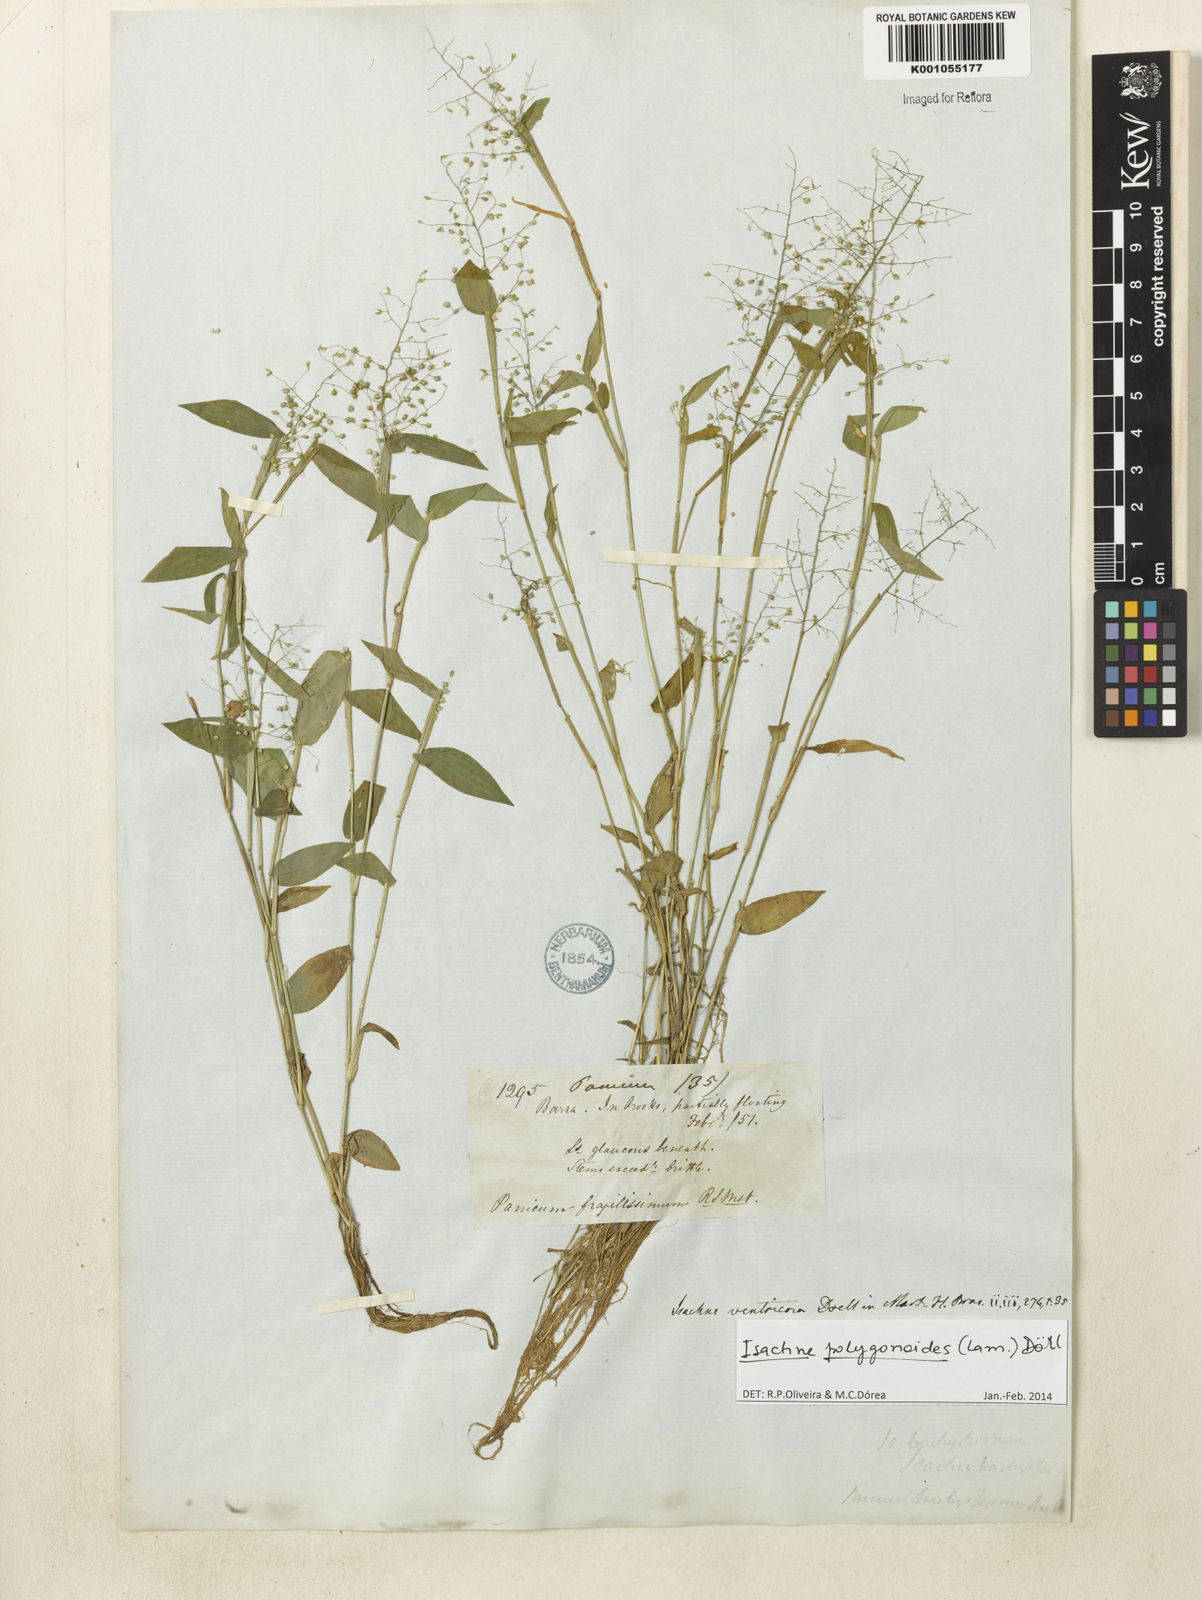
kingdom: Plantae
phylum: Tracheophyta
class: Liliopsida
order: Poales
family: Poaceae
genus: Isachne
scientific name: Isachne
